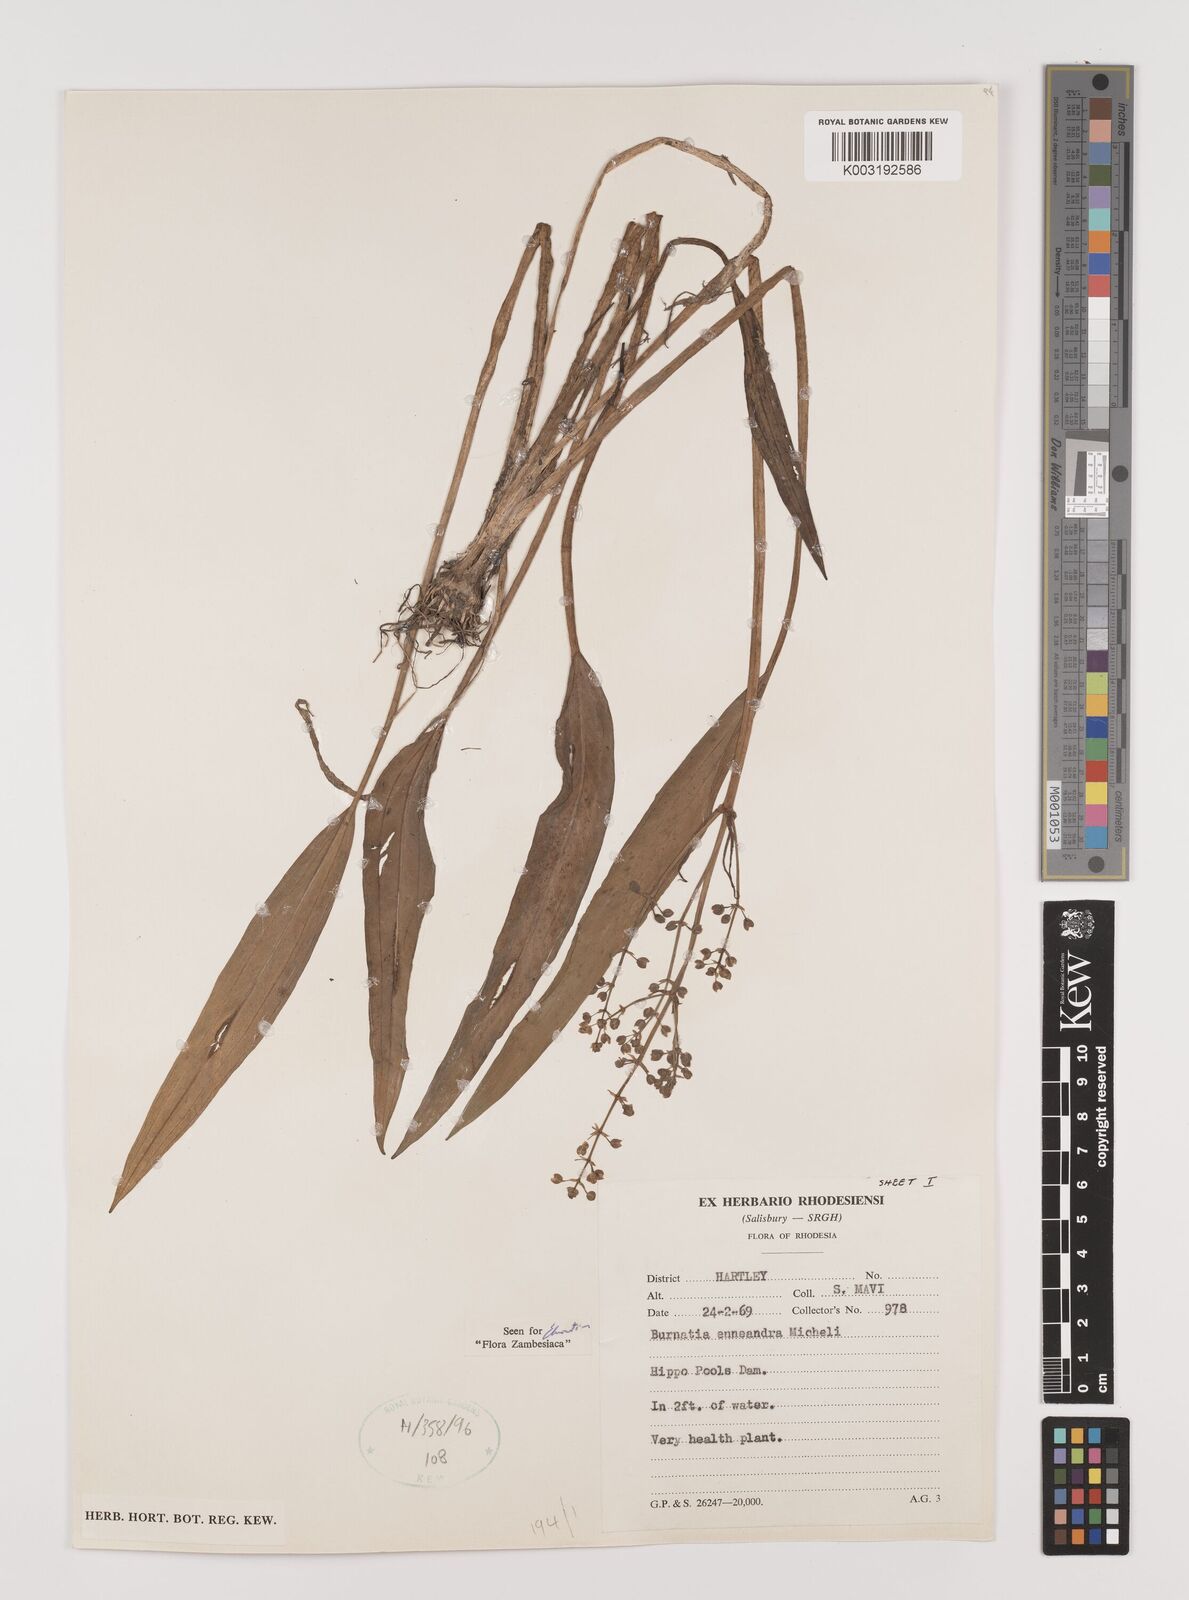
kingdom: Plantae
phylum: Tracheophyta
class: Liliopsida
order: Alismatales
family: Alismataceae
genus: Burnatia
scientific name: Burnatia enneandra
